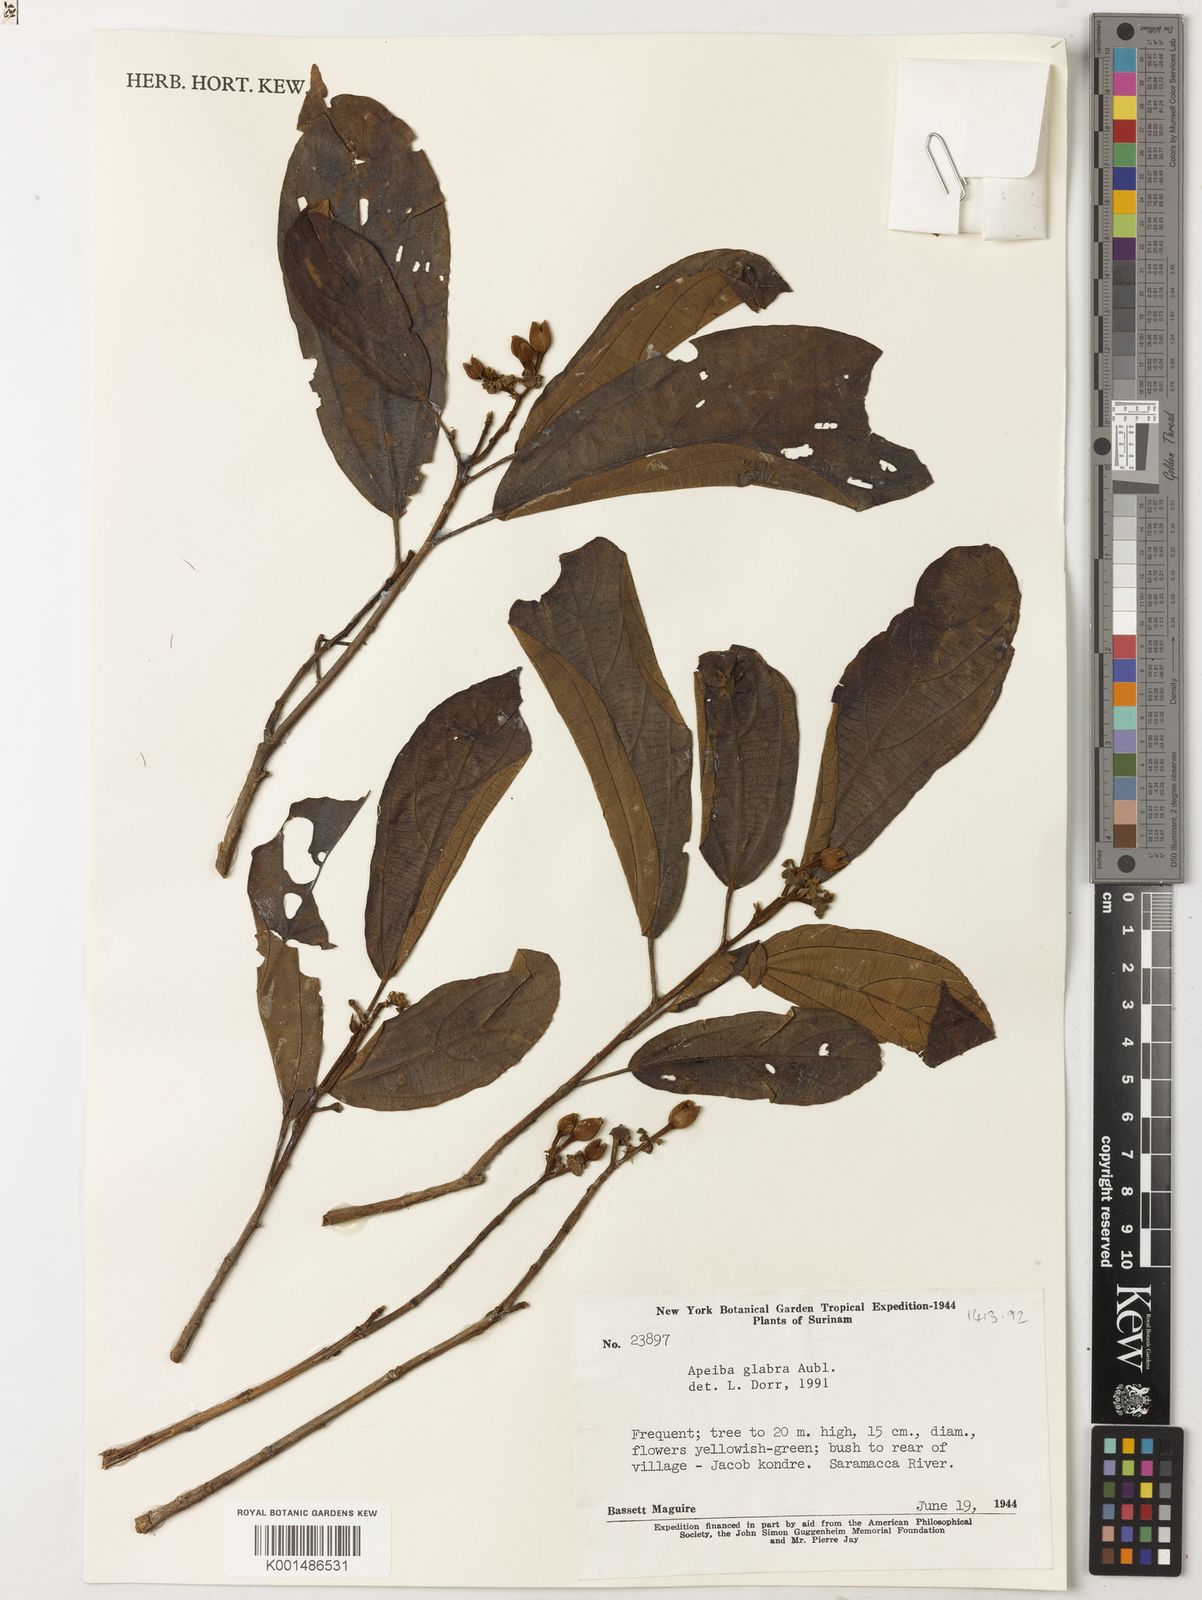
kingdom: Plantae
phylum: Tracheophyta
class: Magnoliopsida
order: Malvales
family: Malvaceae
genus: Apeiba
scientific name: Apeiba glabra
